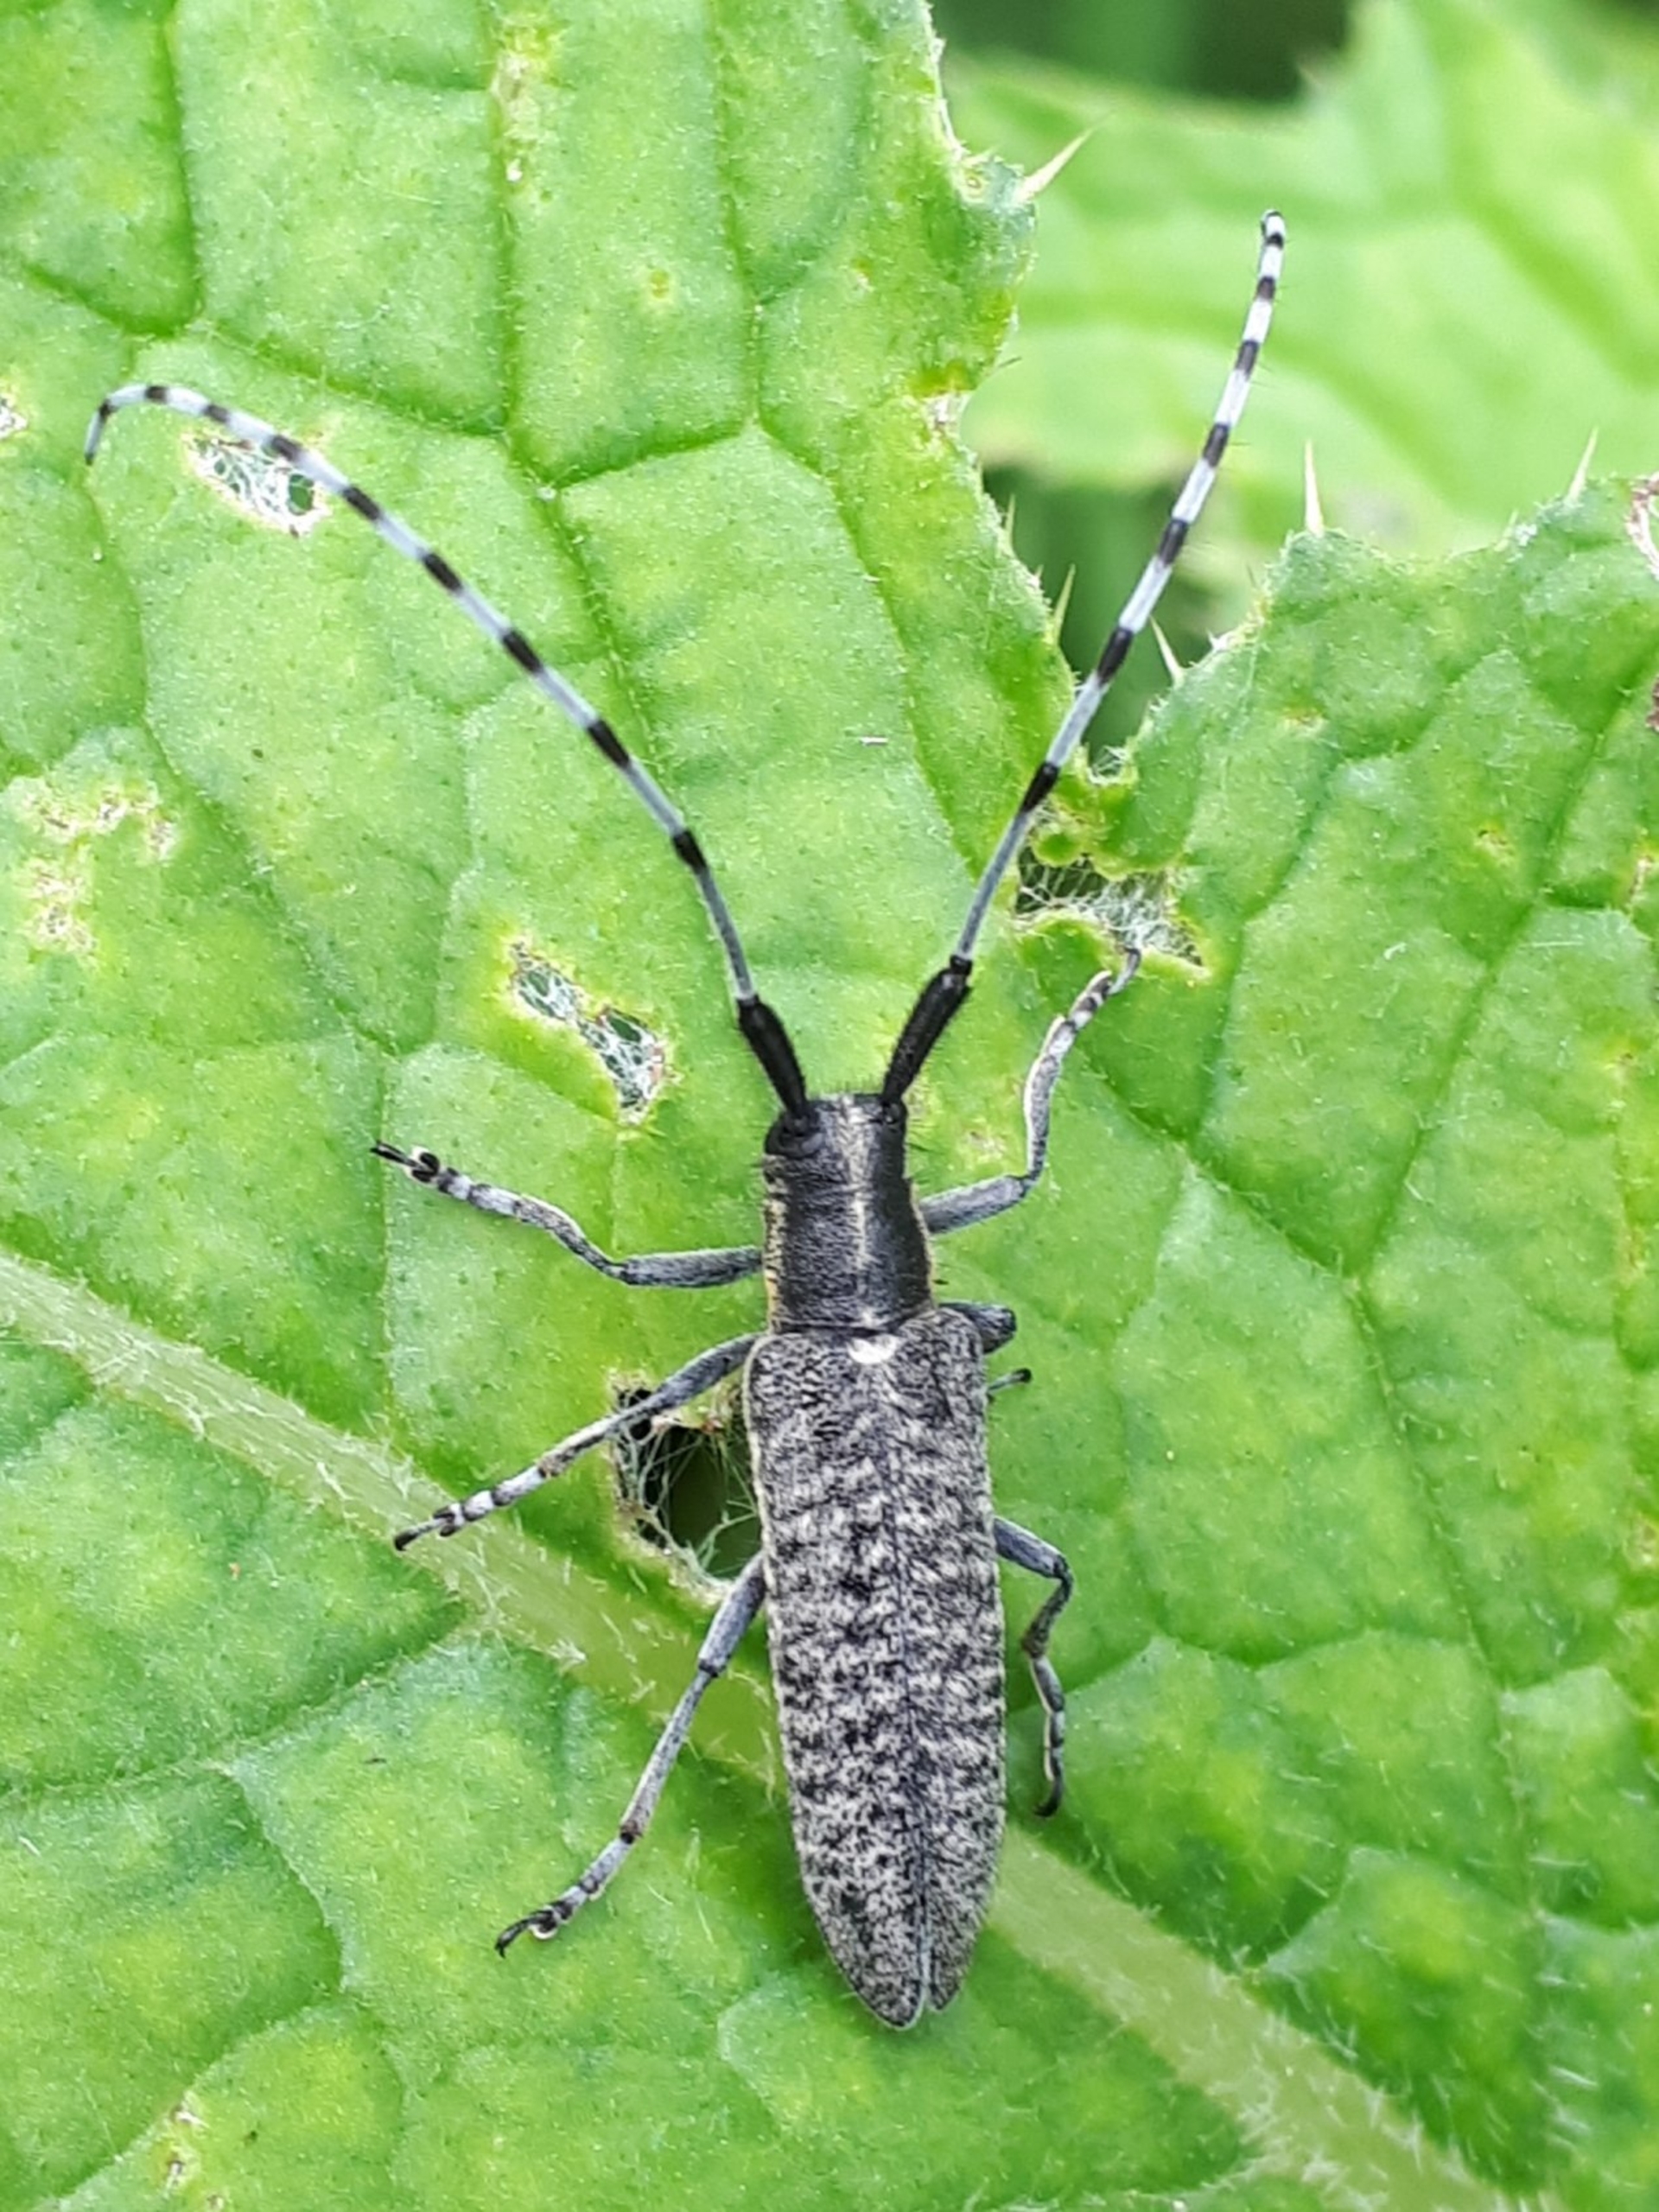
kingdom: Animalia
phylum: Arthropoda
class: Insecta
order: Coleoptera
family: Cerambycidae
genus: Agapanthia
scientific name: Agapanthia villosoviridescens
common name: Tidselbuk
